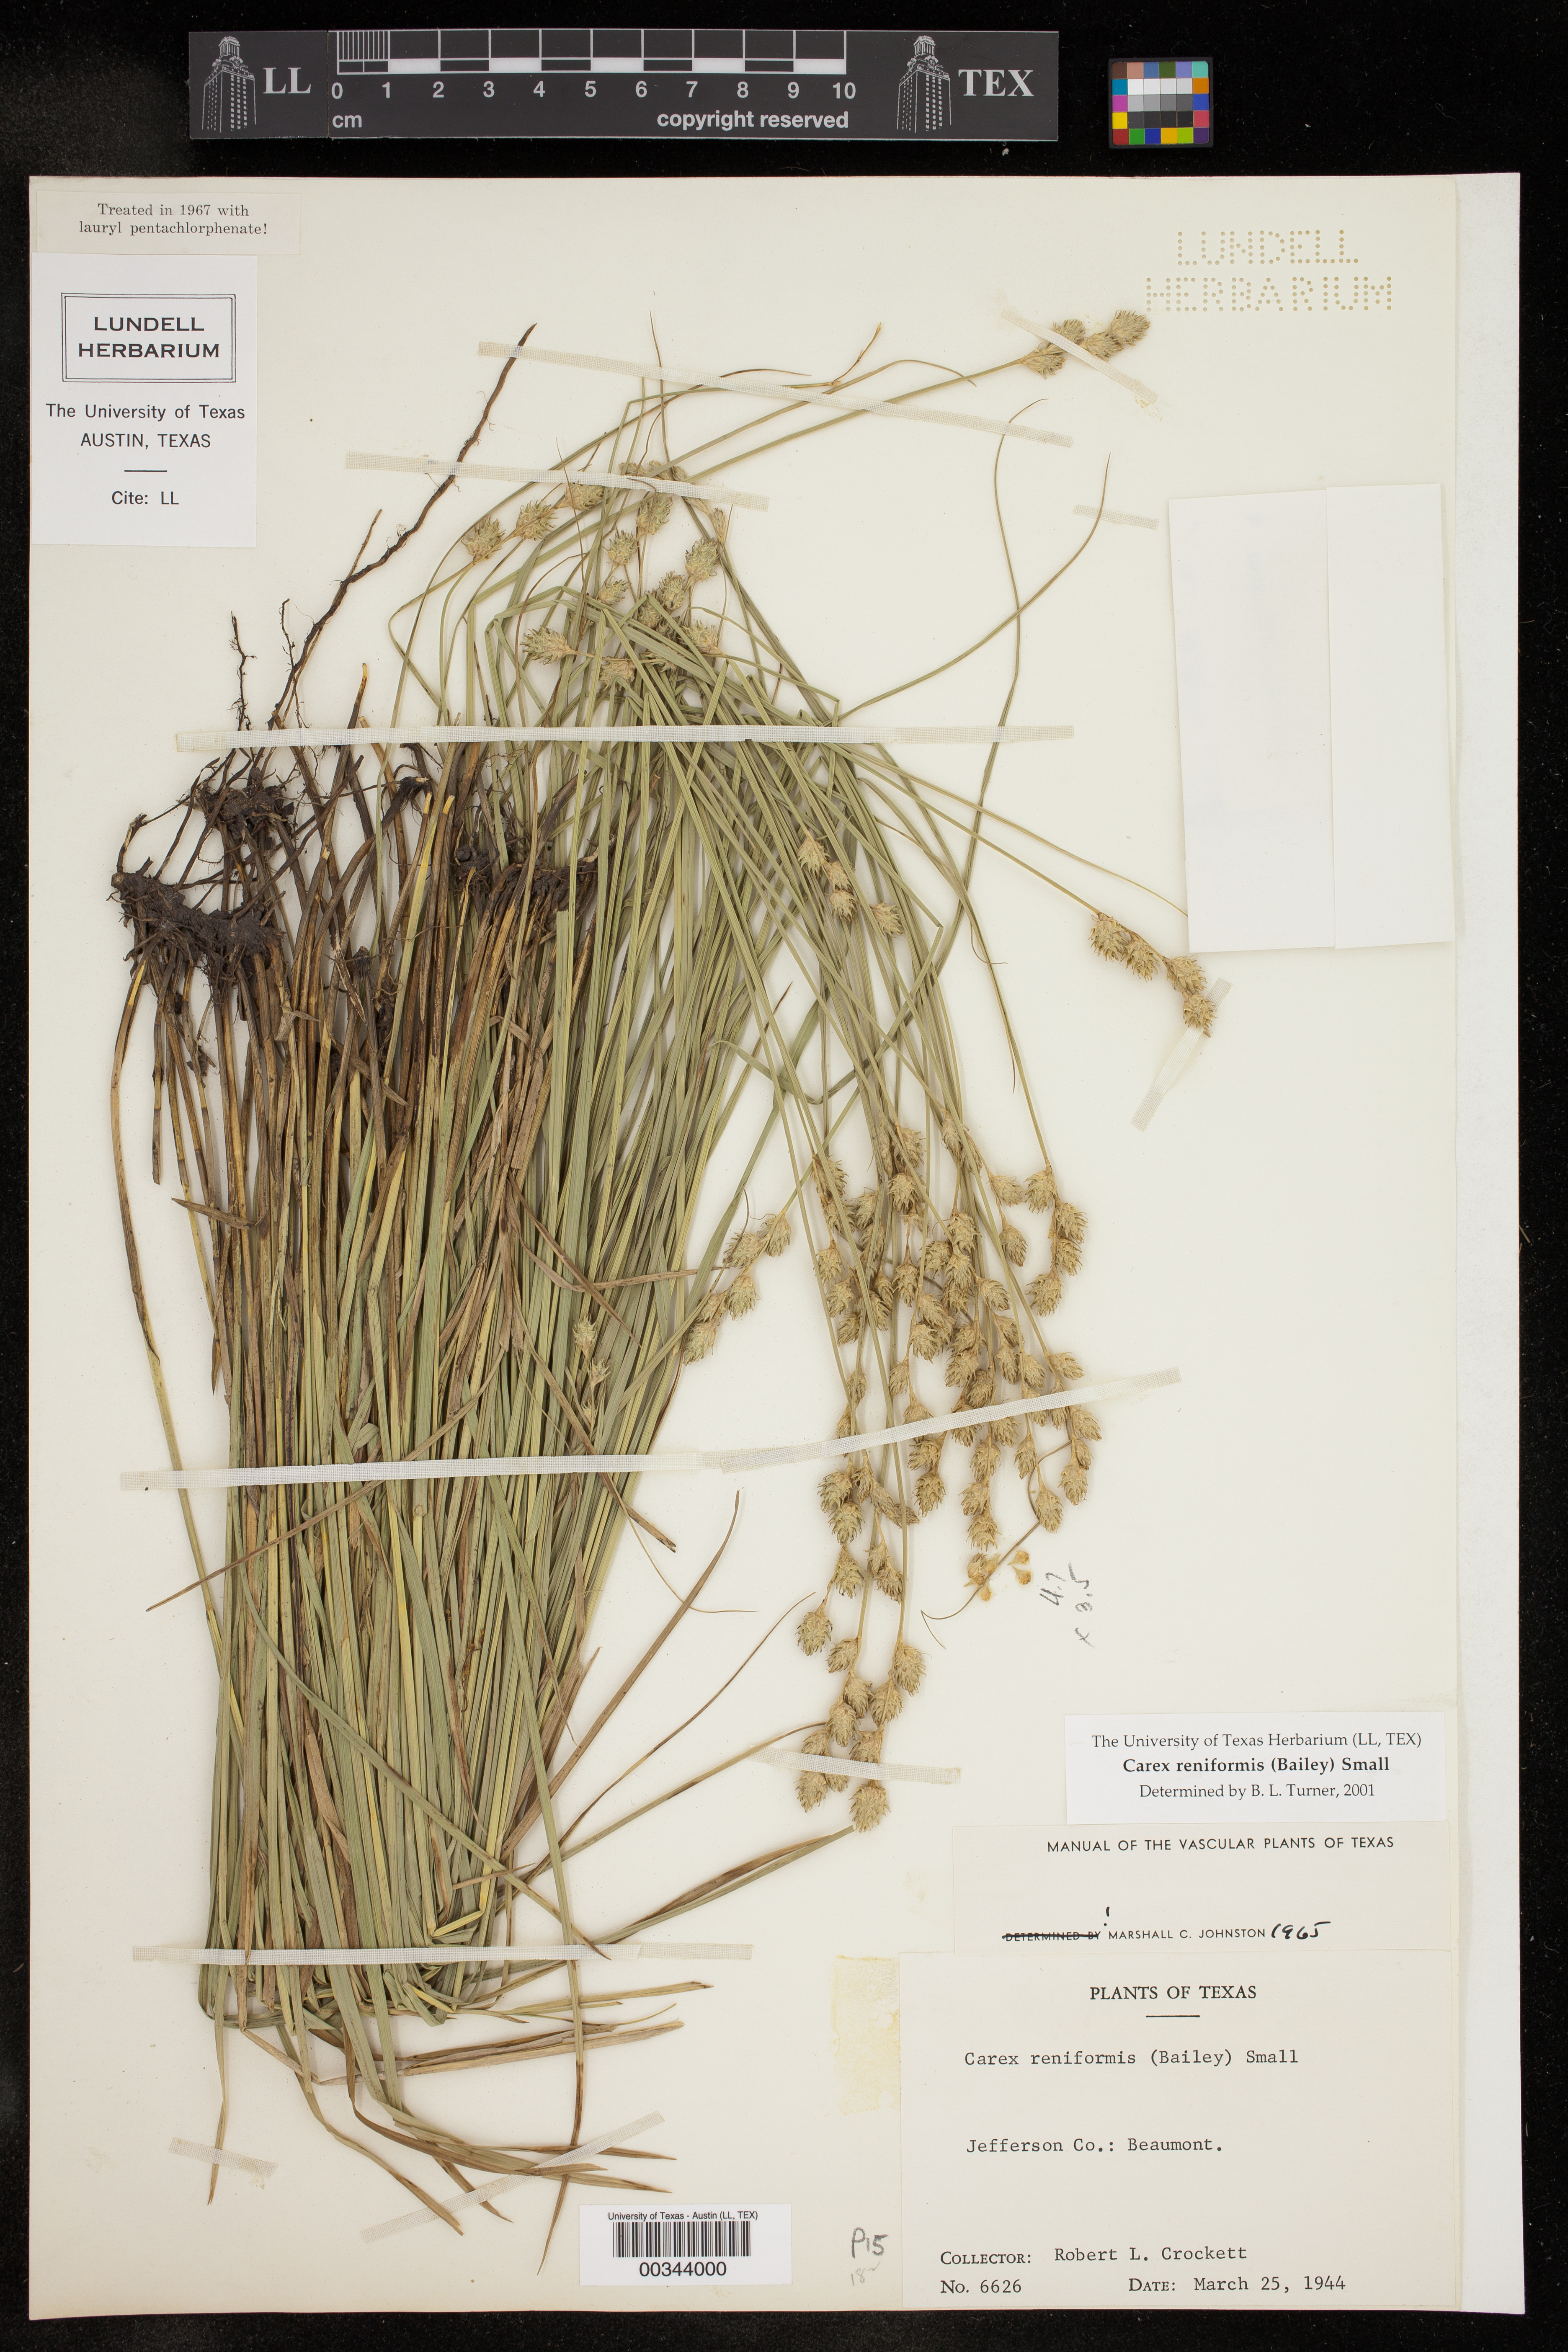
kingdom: Plantae
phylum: Tracheophyta
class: Liliopsida
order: Poales
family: Cyperaceae
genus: Carex
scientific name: Carex reniformis
